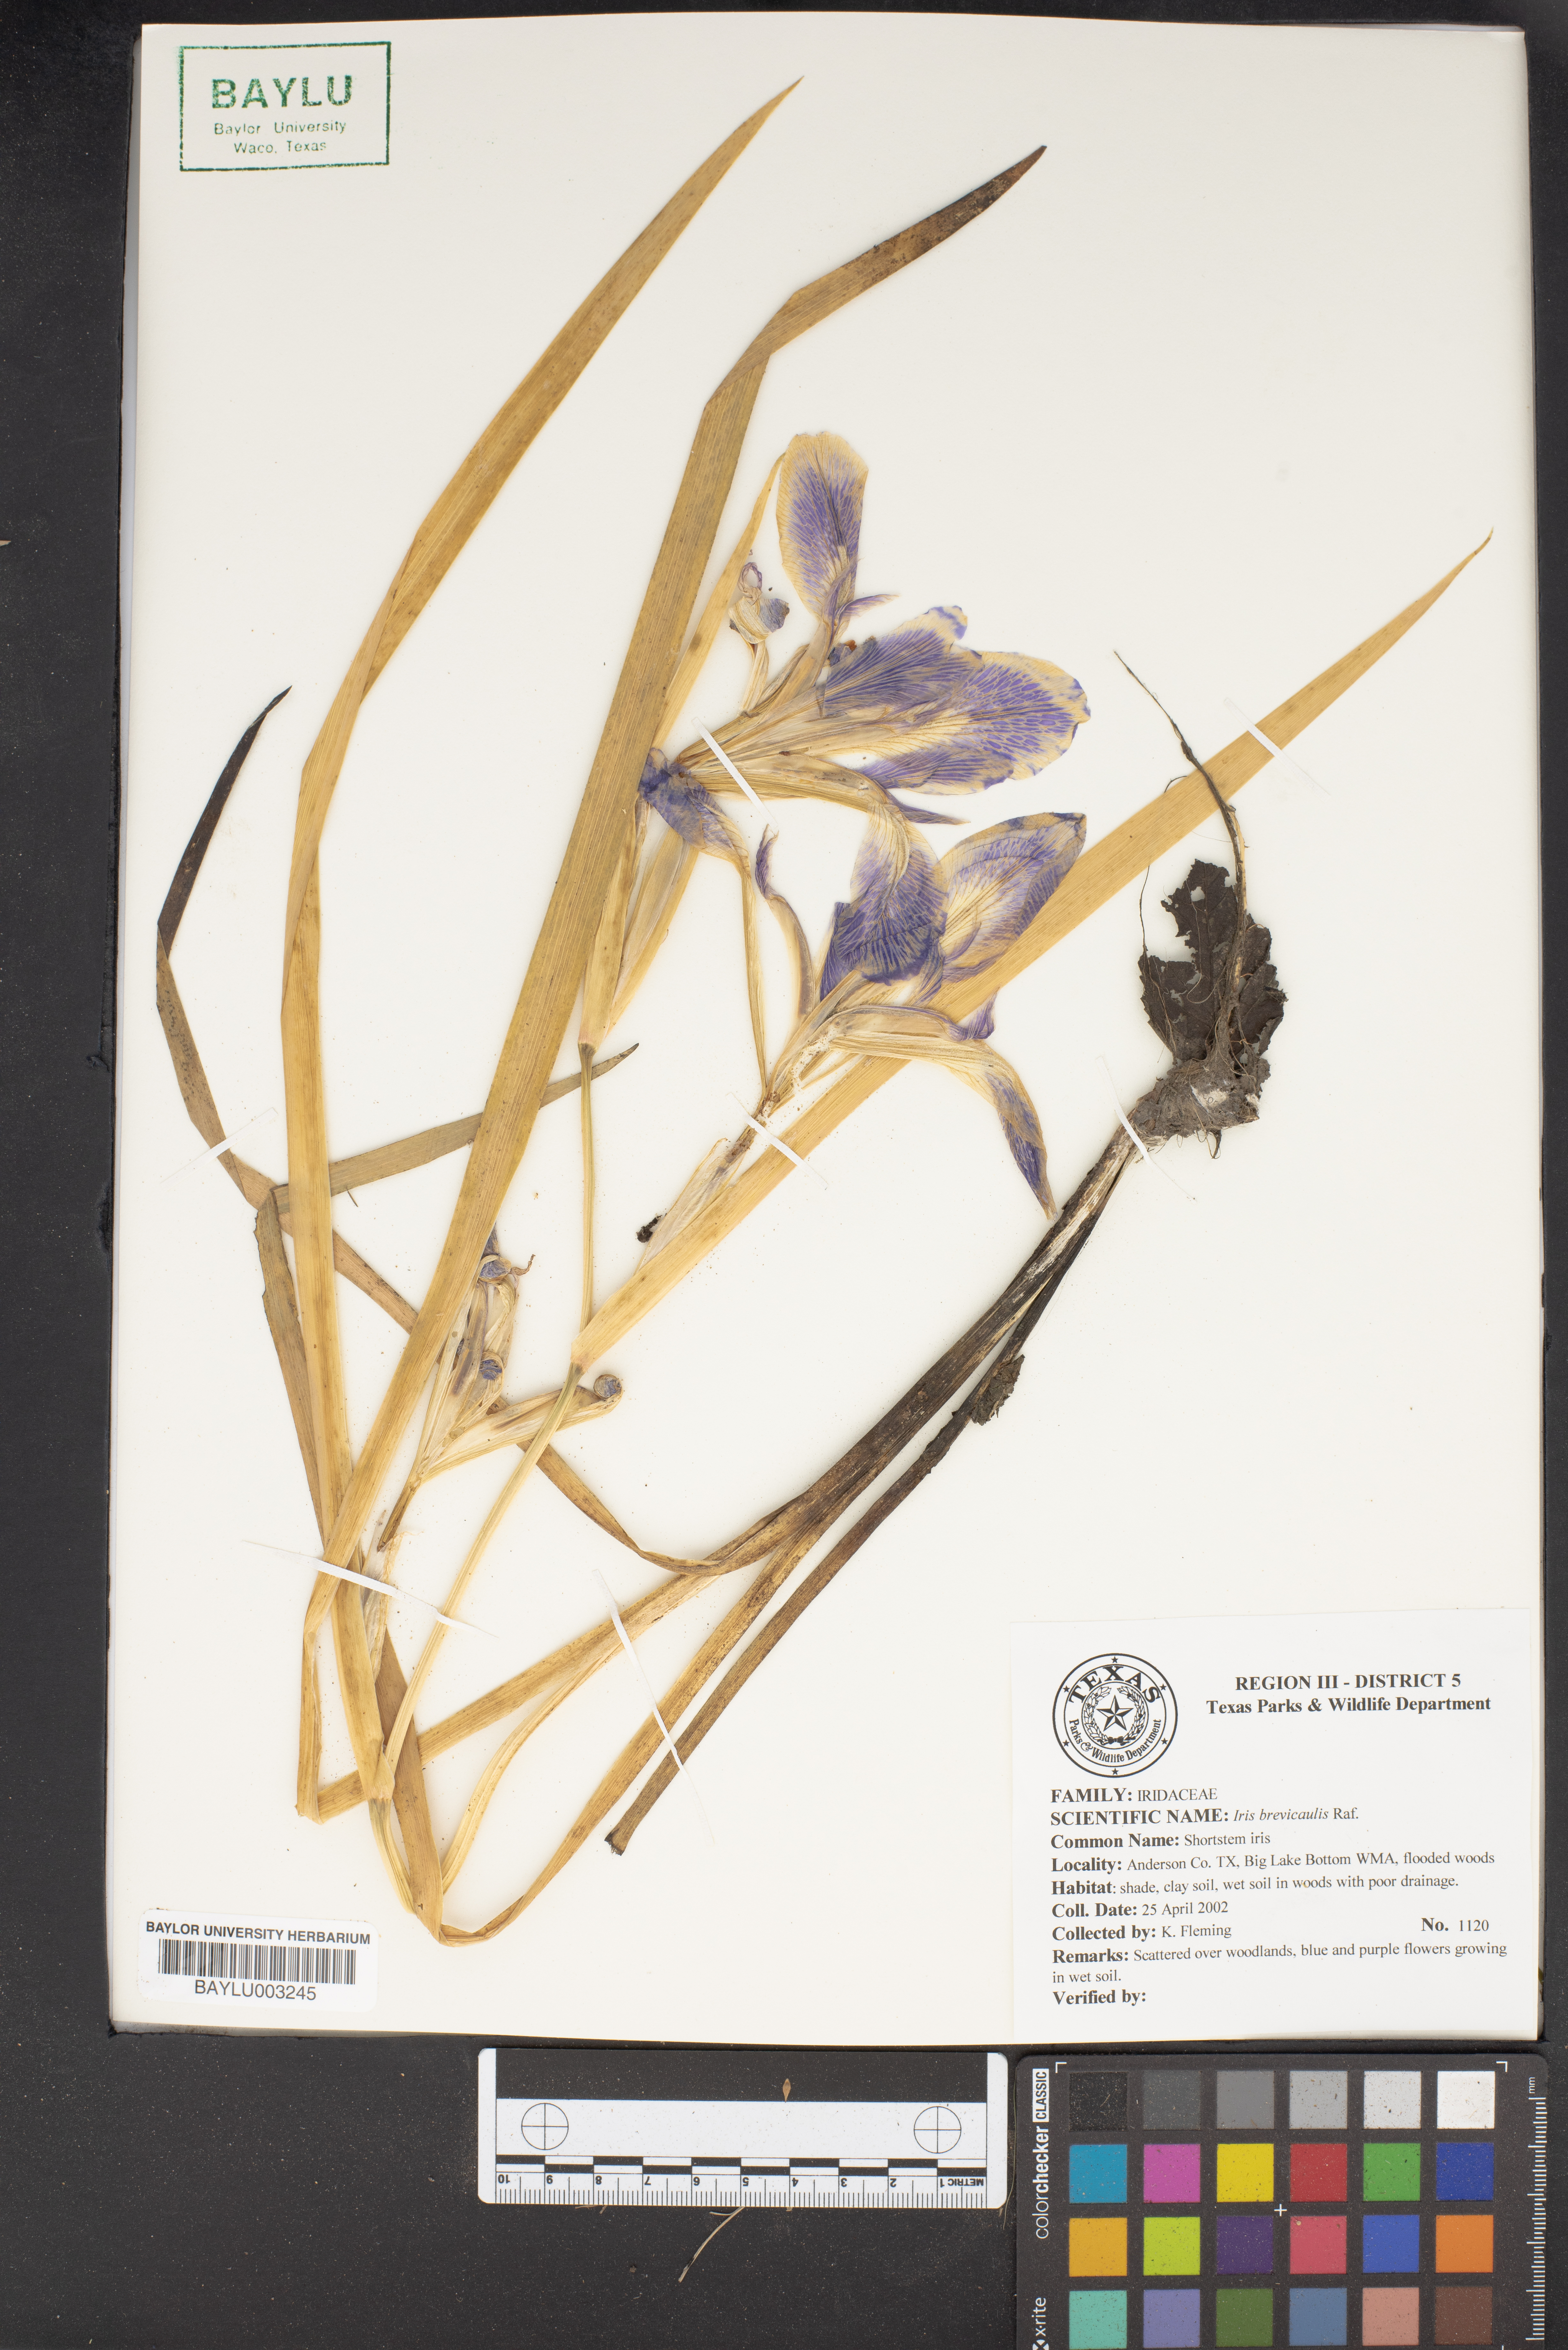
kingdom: Plantae
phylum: Tracheophyta
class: Liliopsida
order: Asparagales
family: Iridaceae
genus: Iris
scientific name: Iris brevicaulis
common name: Zigzag iris
